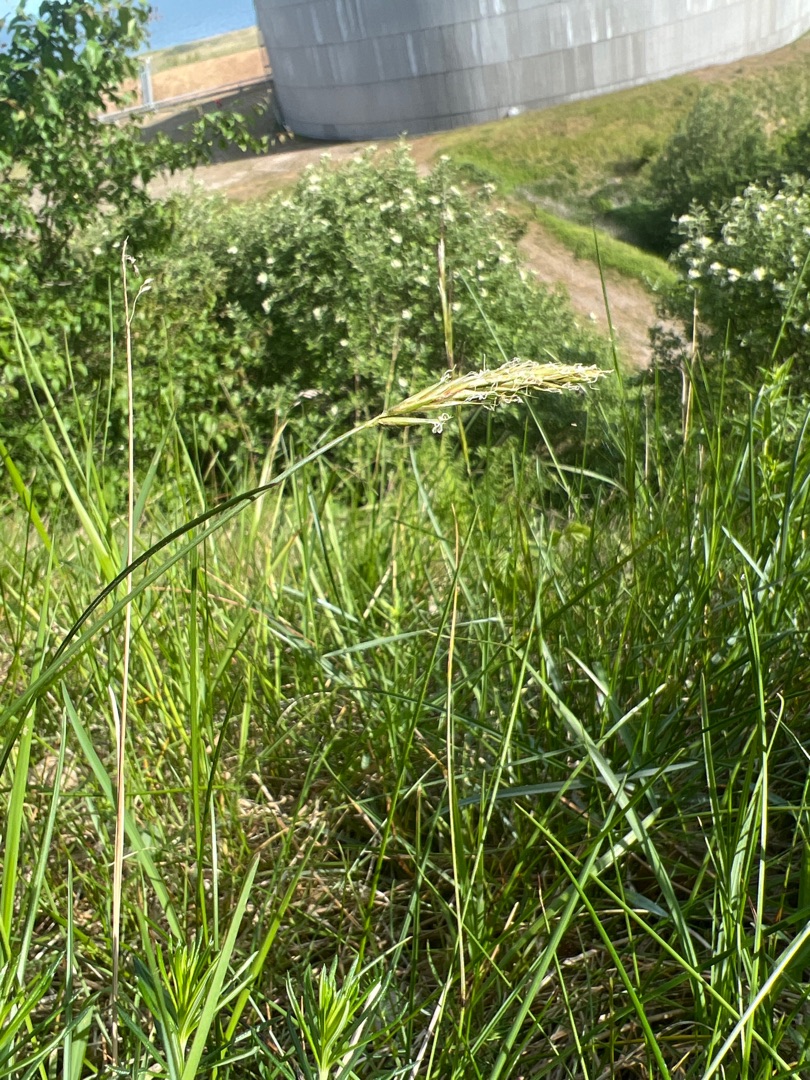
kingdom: Plantae
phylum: Tracheophyta
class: Liliopsida
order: Poales
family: Poaceae
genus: Anthoxanthum
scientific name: Anthoxanthum odoratum
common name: Vellugtende gulaks
